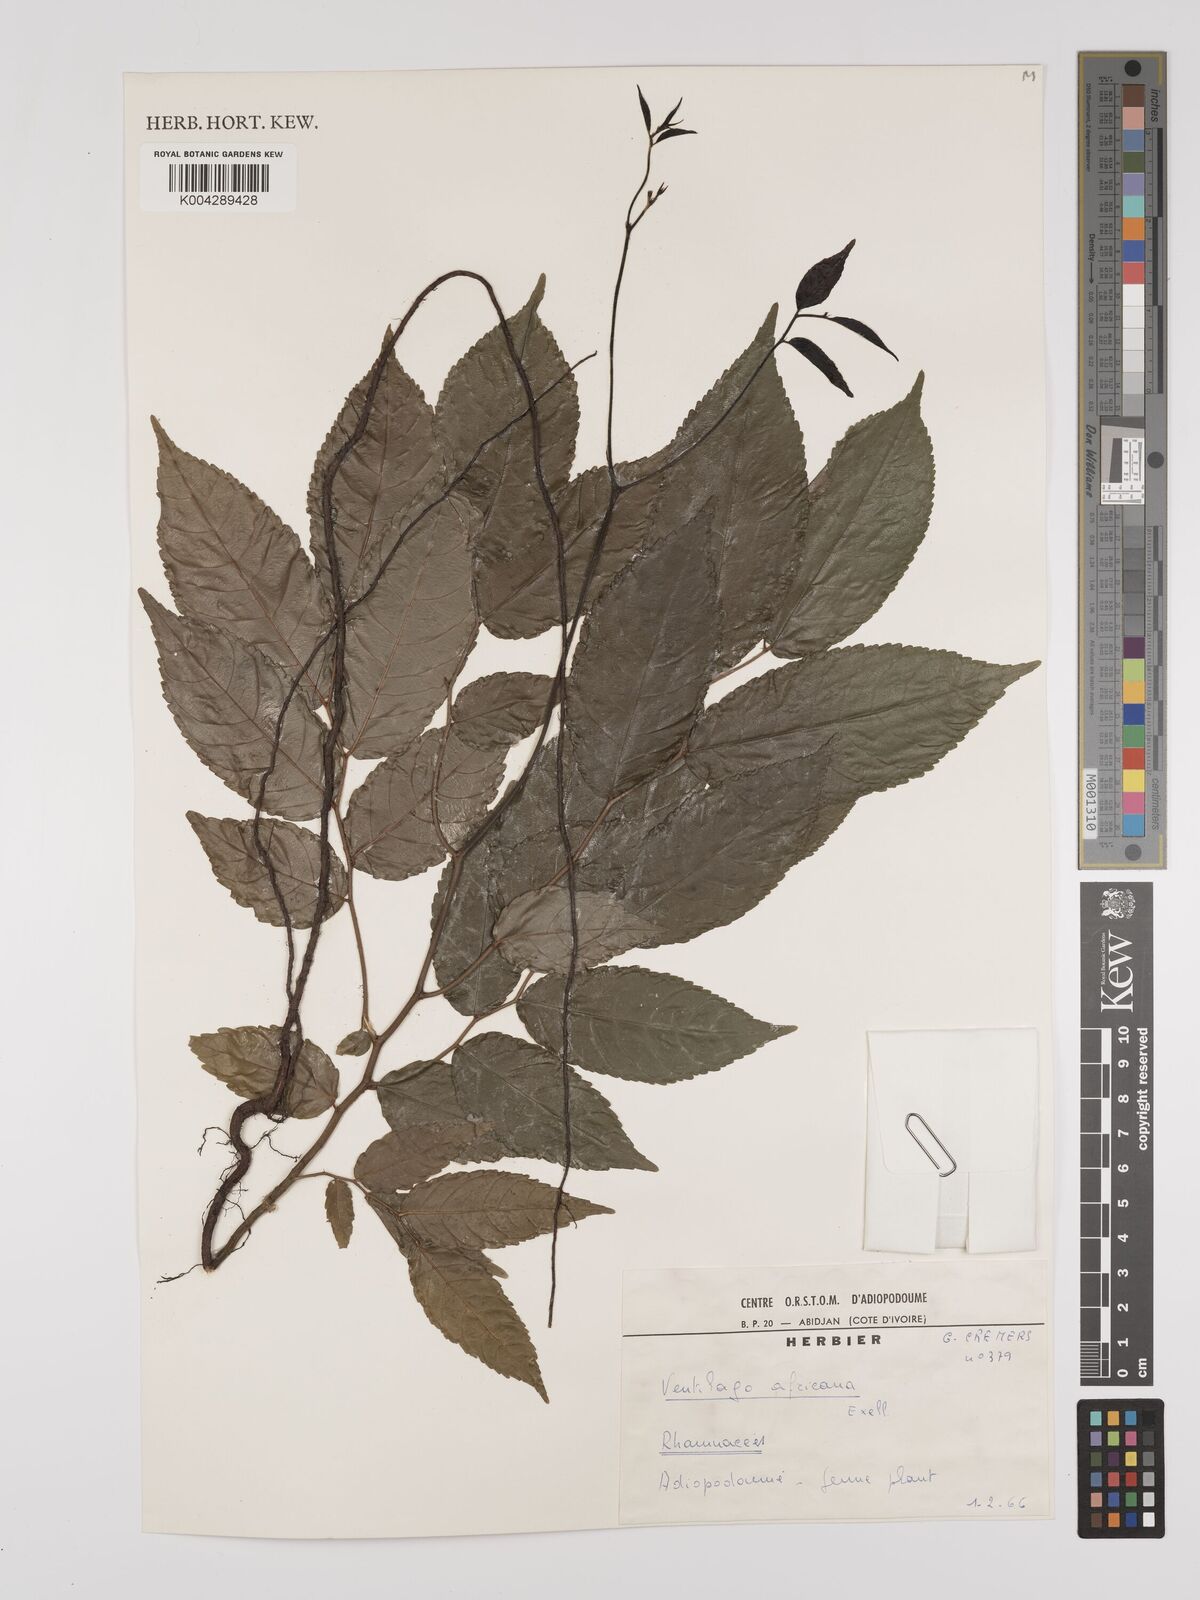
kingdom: Plantae
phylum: Tracheophyta
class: Magnoliopsida
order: Rosales
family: Rhamnaceae
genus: Ventilago
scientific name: Ventilago africana
